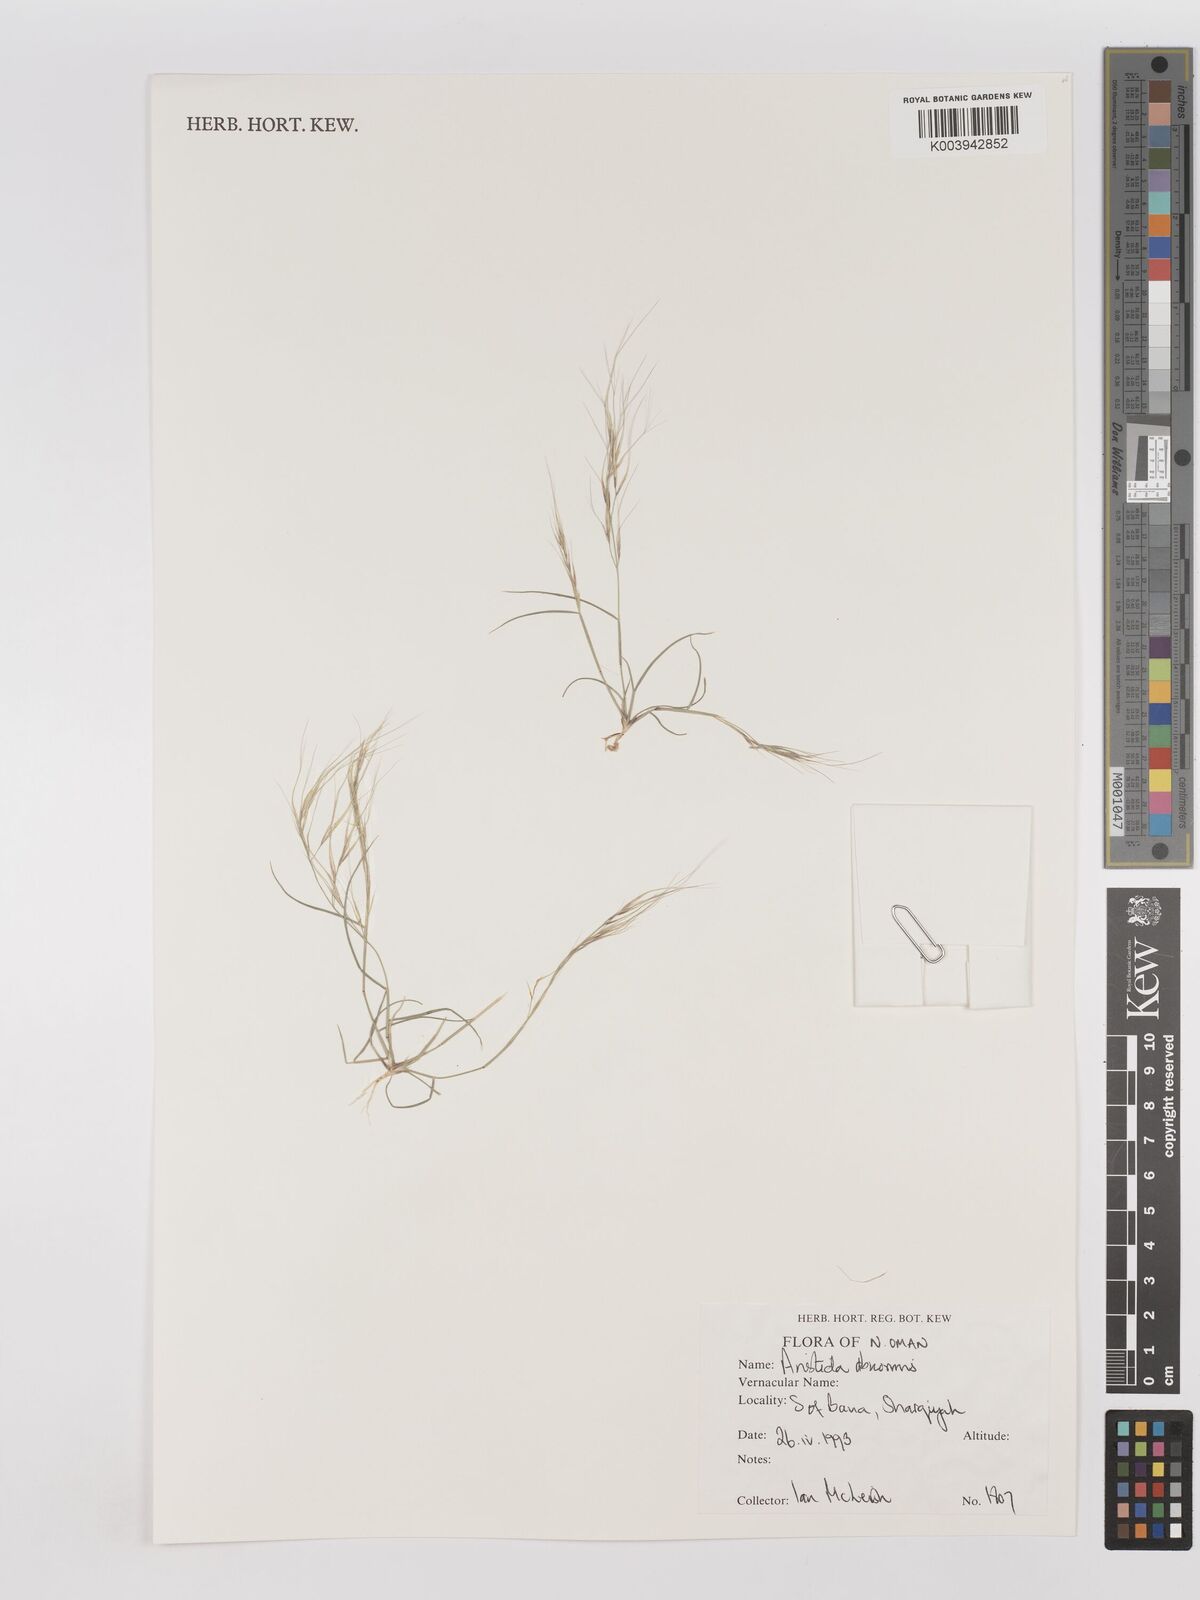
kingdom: Plantae
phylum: Tracheophyta
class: Liliopsida
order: Poales
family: Poaceae
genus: Aristida
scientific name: Aristida abnormis
